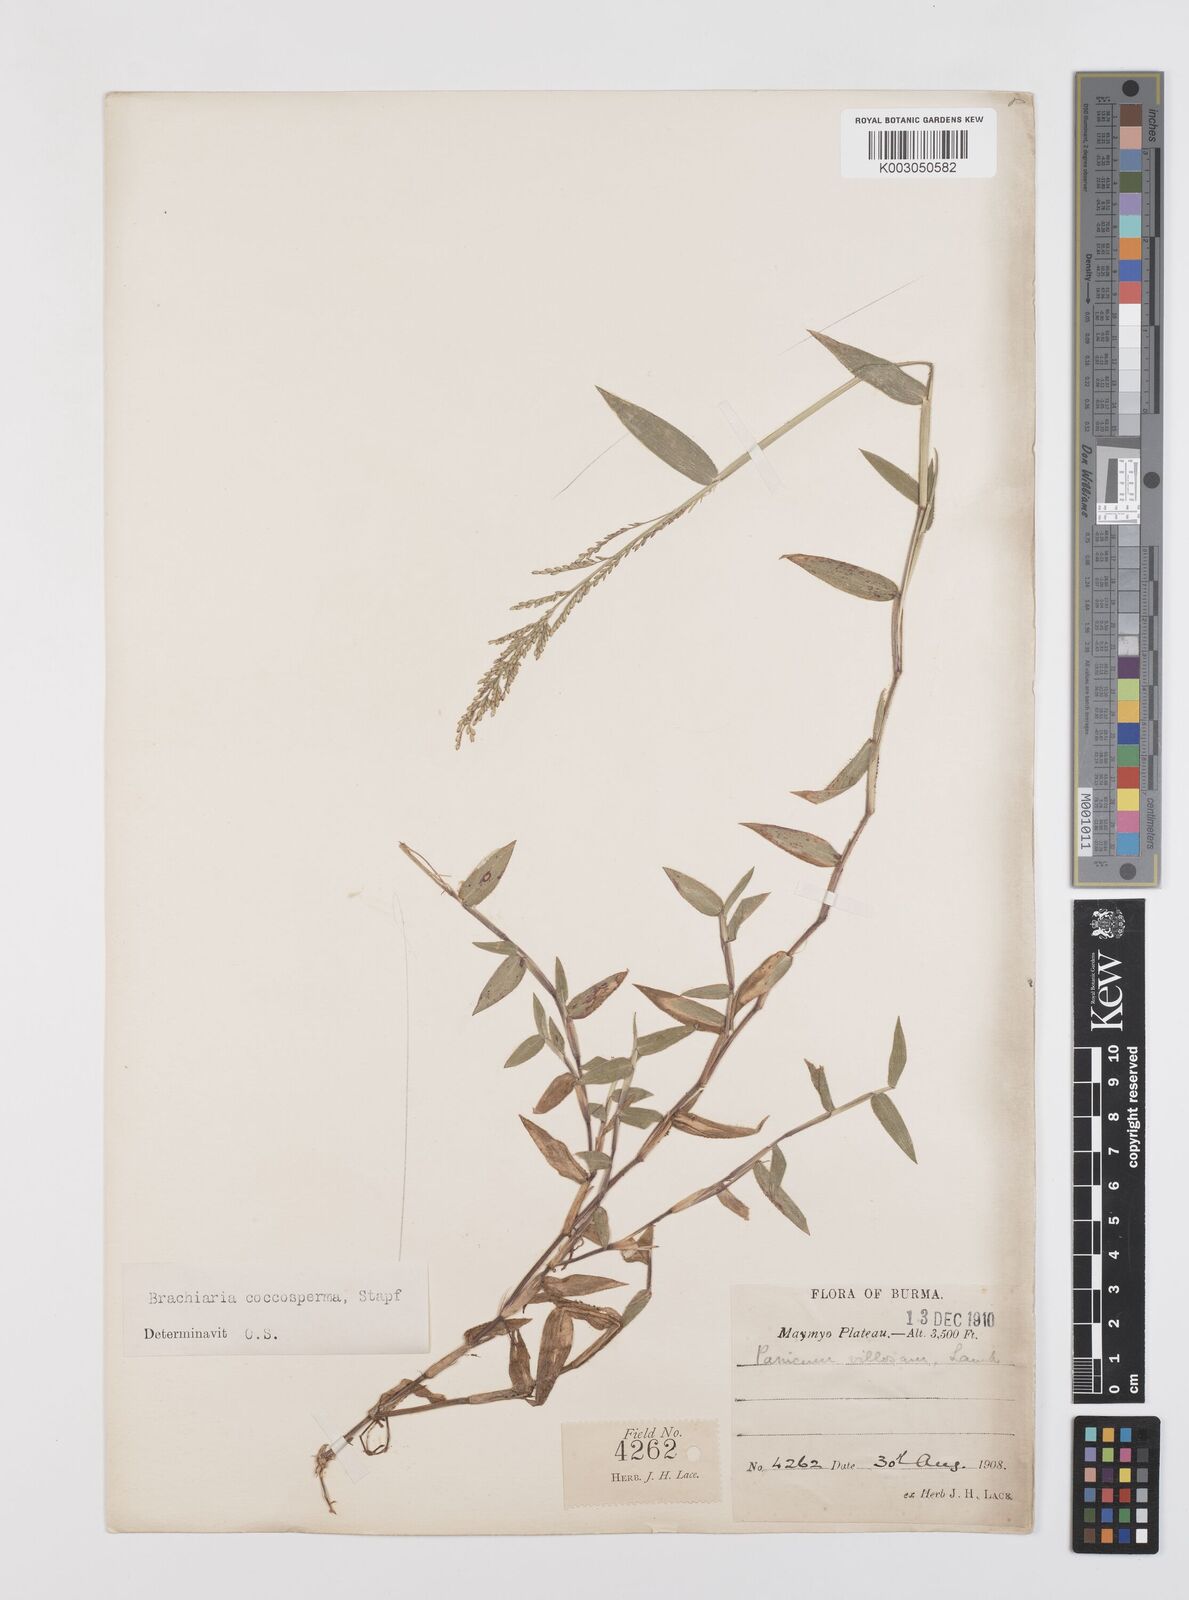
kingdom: Plantae
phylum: Tracheophyta
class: Liliopsida
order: Poales
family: Poaceae
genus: Urochloa
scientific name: Urochloa villosa
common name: Hairy signalgrass
